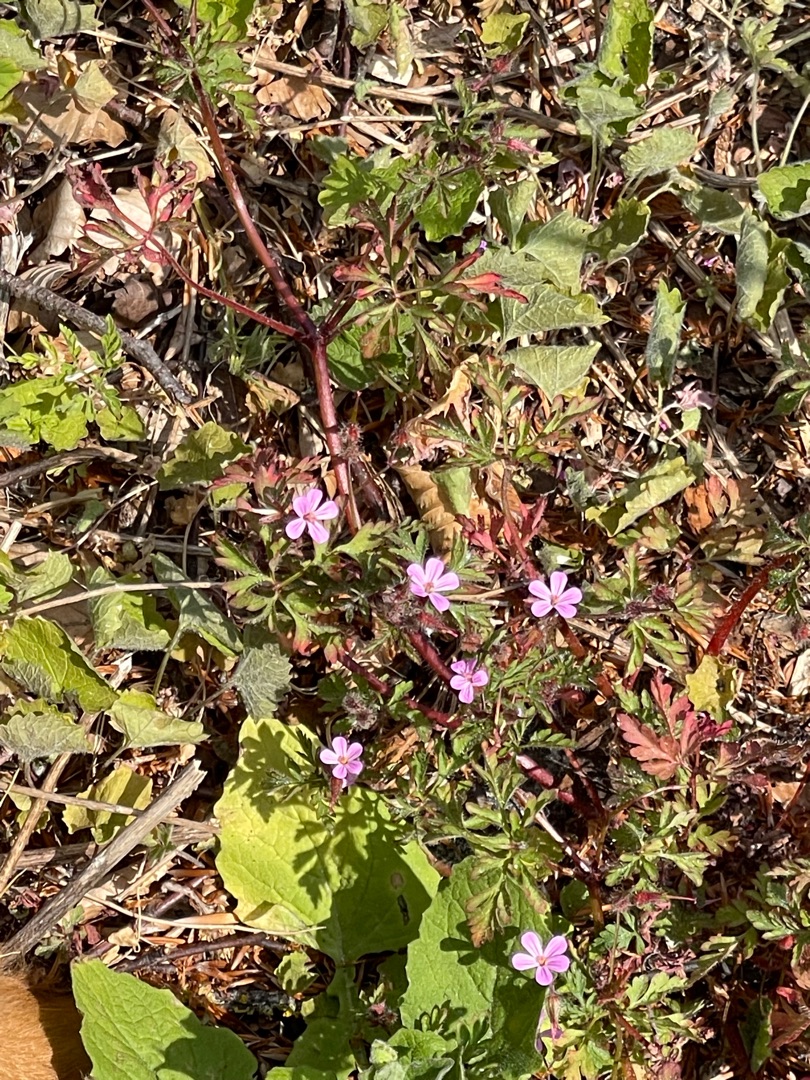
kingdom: Plantae
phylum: Tracheophyta
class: Magnoliopsida
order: Geraniales
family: Geraniaceae
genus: Geranium
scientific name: Geranium robertianum
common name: Stinkende storkenæb
